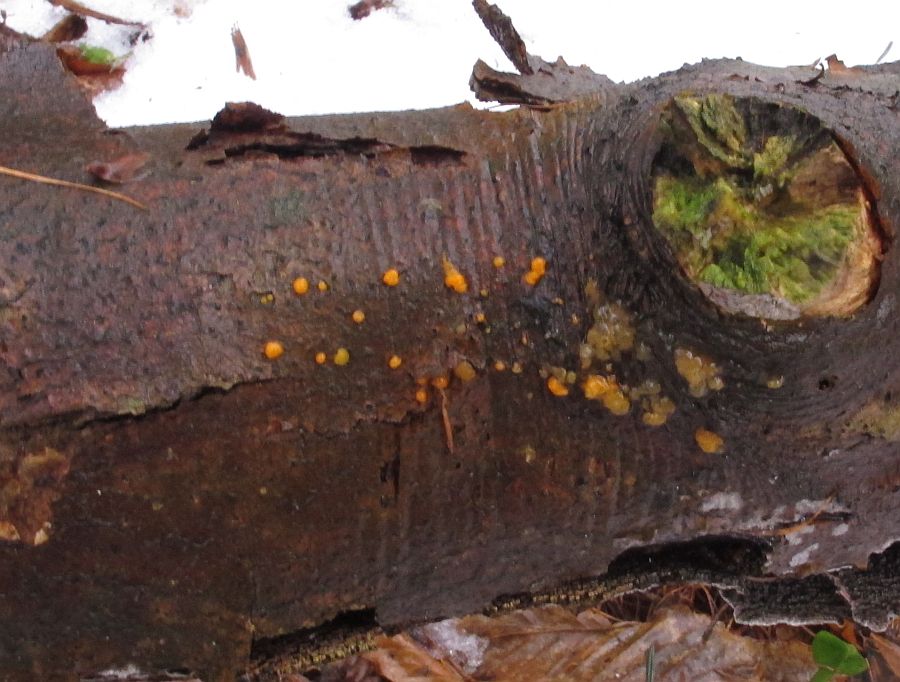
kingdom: Fungi
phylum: Basidiomycota
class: Dacrymycetes
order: Dacrymycetales
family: Dacrymycetaceae
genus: Dacrymyces
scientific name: Dacrymyces stillatus
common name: almindelig tåresvamp
